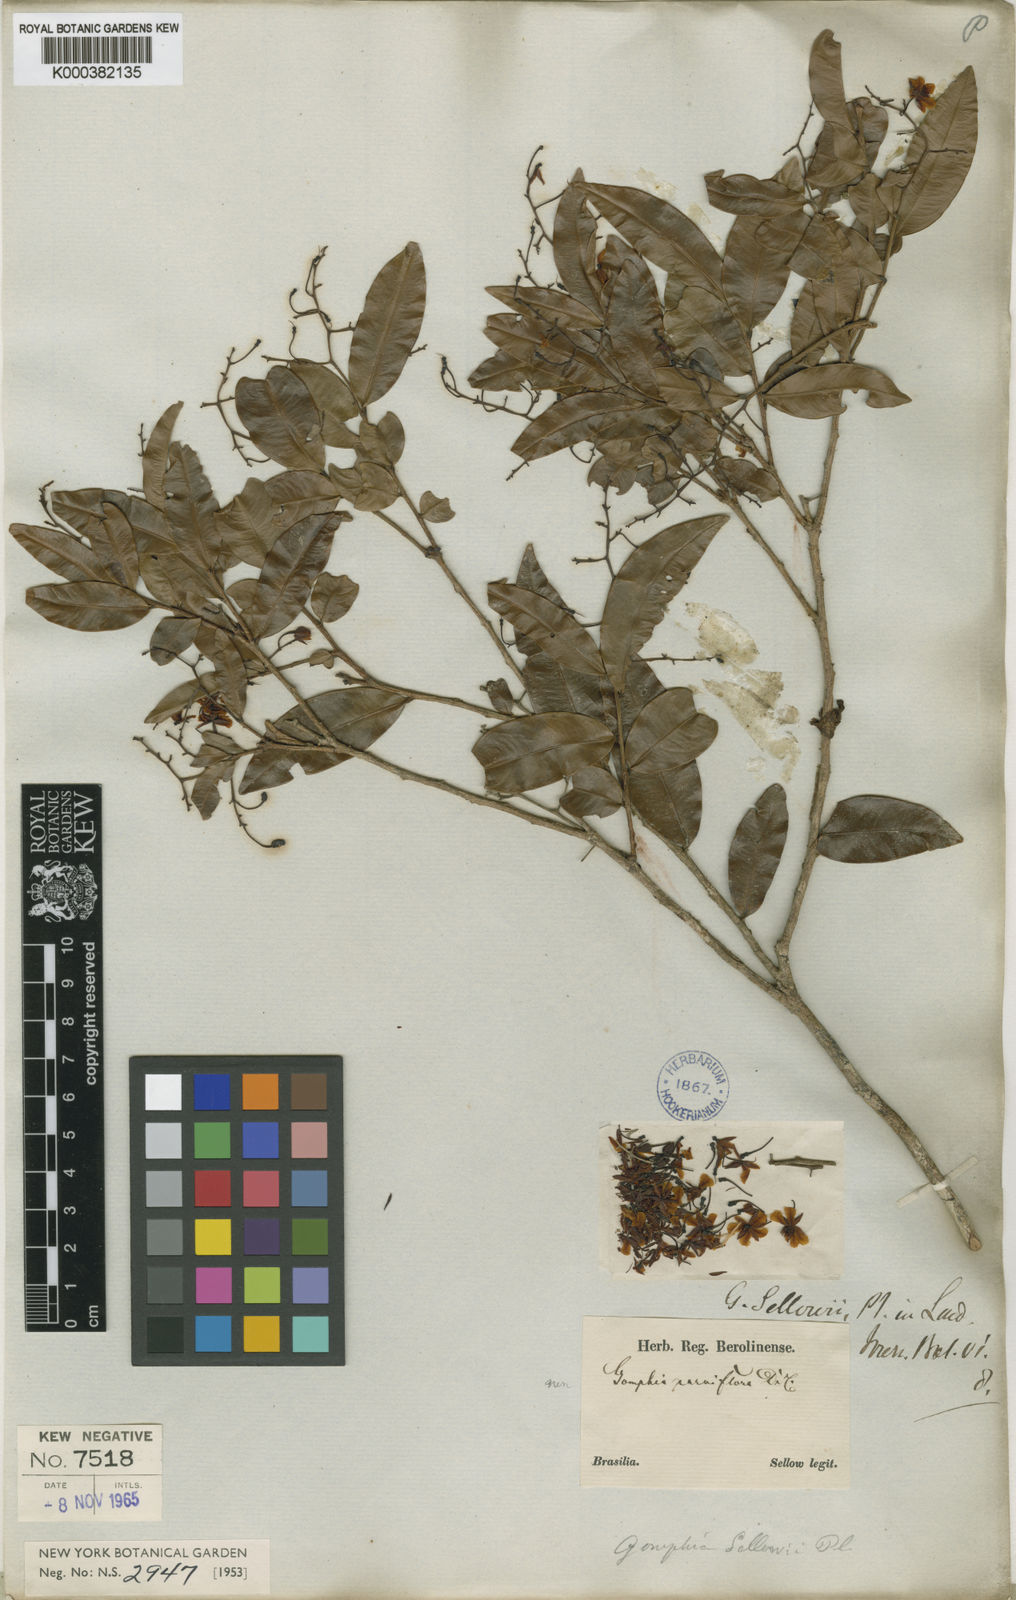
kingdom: Plantae
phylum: Tracheophyta
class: Magnoliopsida
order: Malpighiales
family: Ochnaceae
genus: Ouratea
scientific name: Ouratea sellowii
